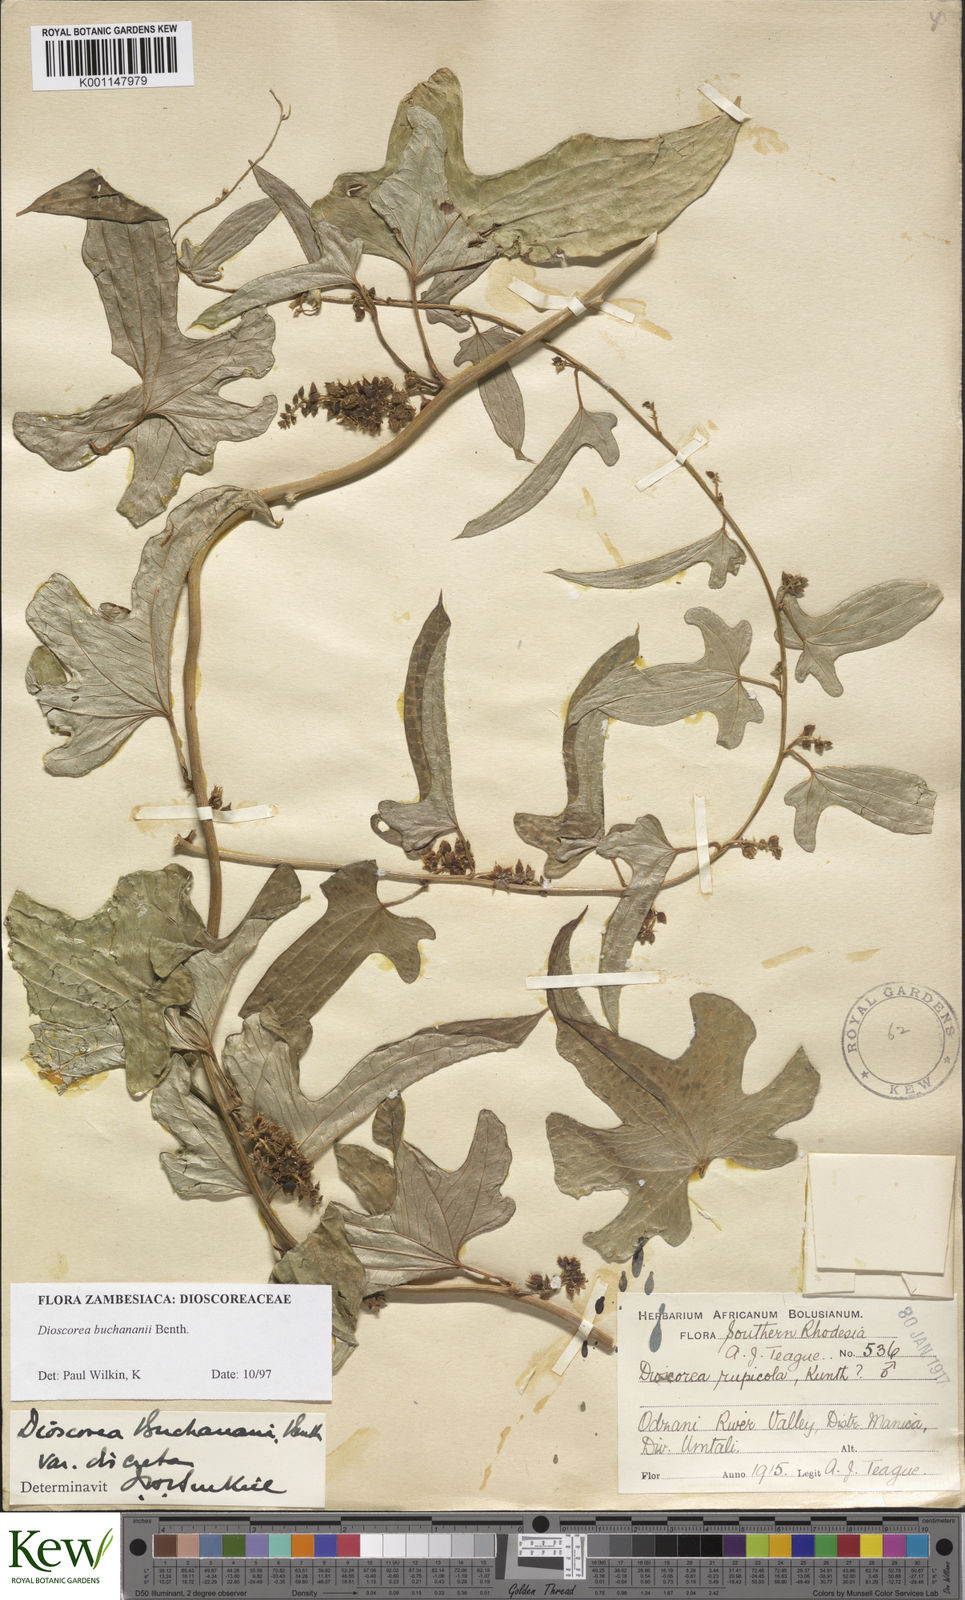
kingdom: Plantae
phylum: Tracheophyta
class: Liliopsida
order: Dioscoreales
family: Dioscoreaceae
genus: Dioscorea
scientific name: Dioscorea buchananii
